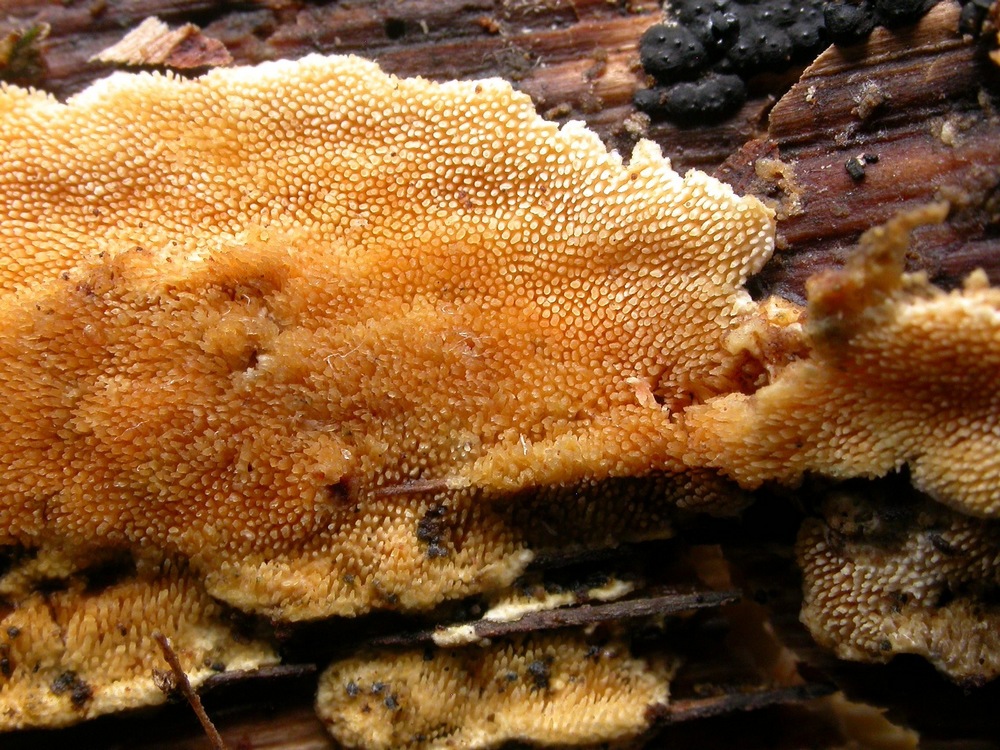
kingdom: Fungi
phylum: Basidiomycota
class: Agaricomycetes
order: Polyporales
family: Steccherinaceae
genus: Steccherinum
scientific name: Steccherinum ochraceum
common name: almindelig skønpig
